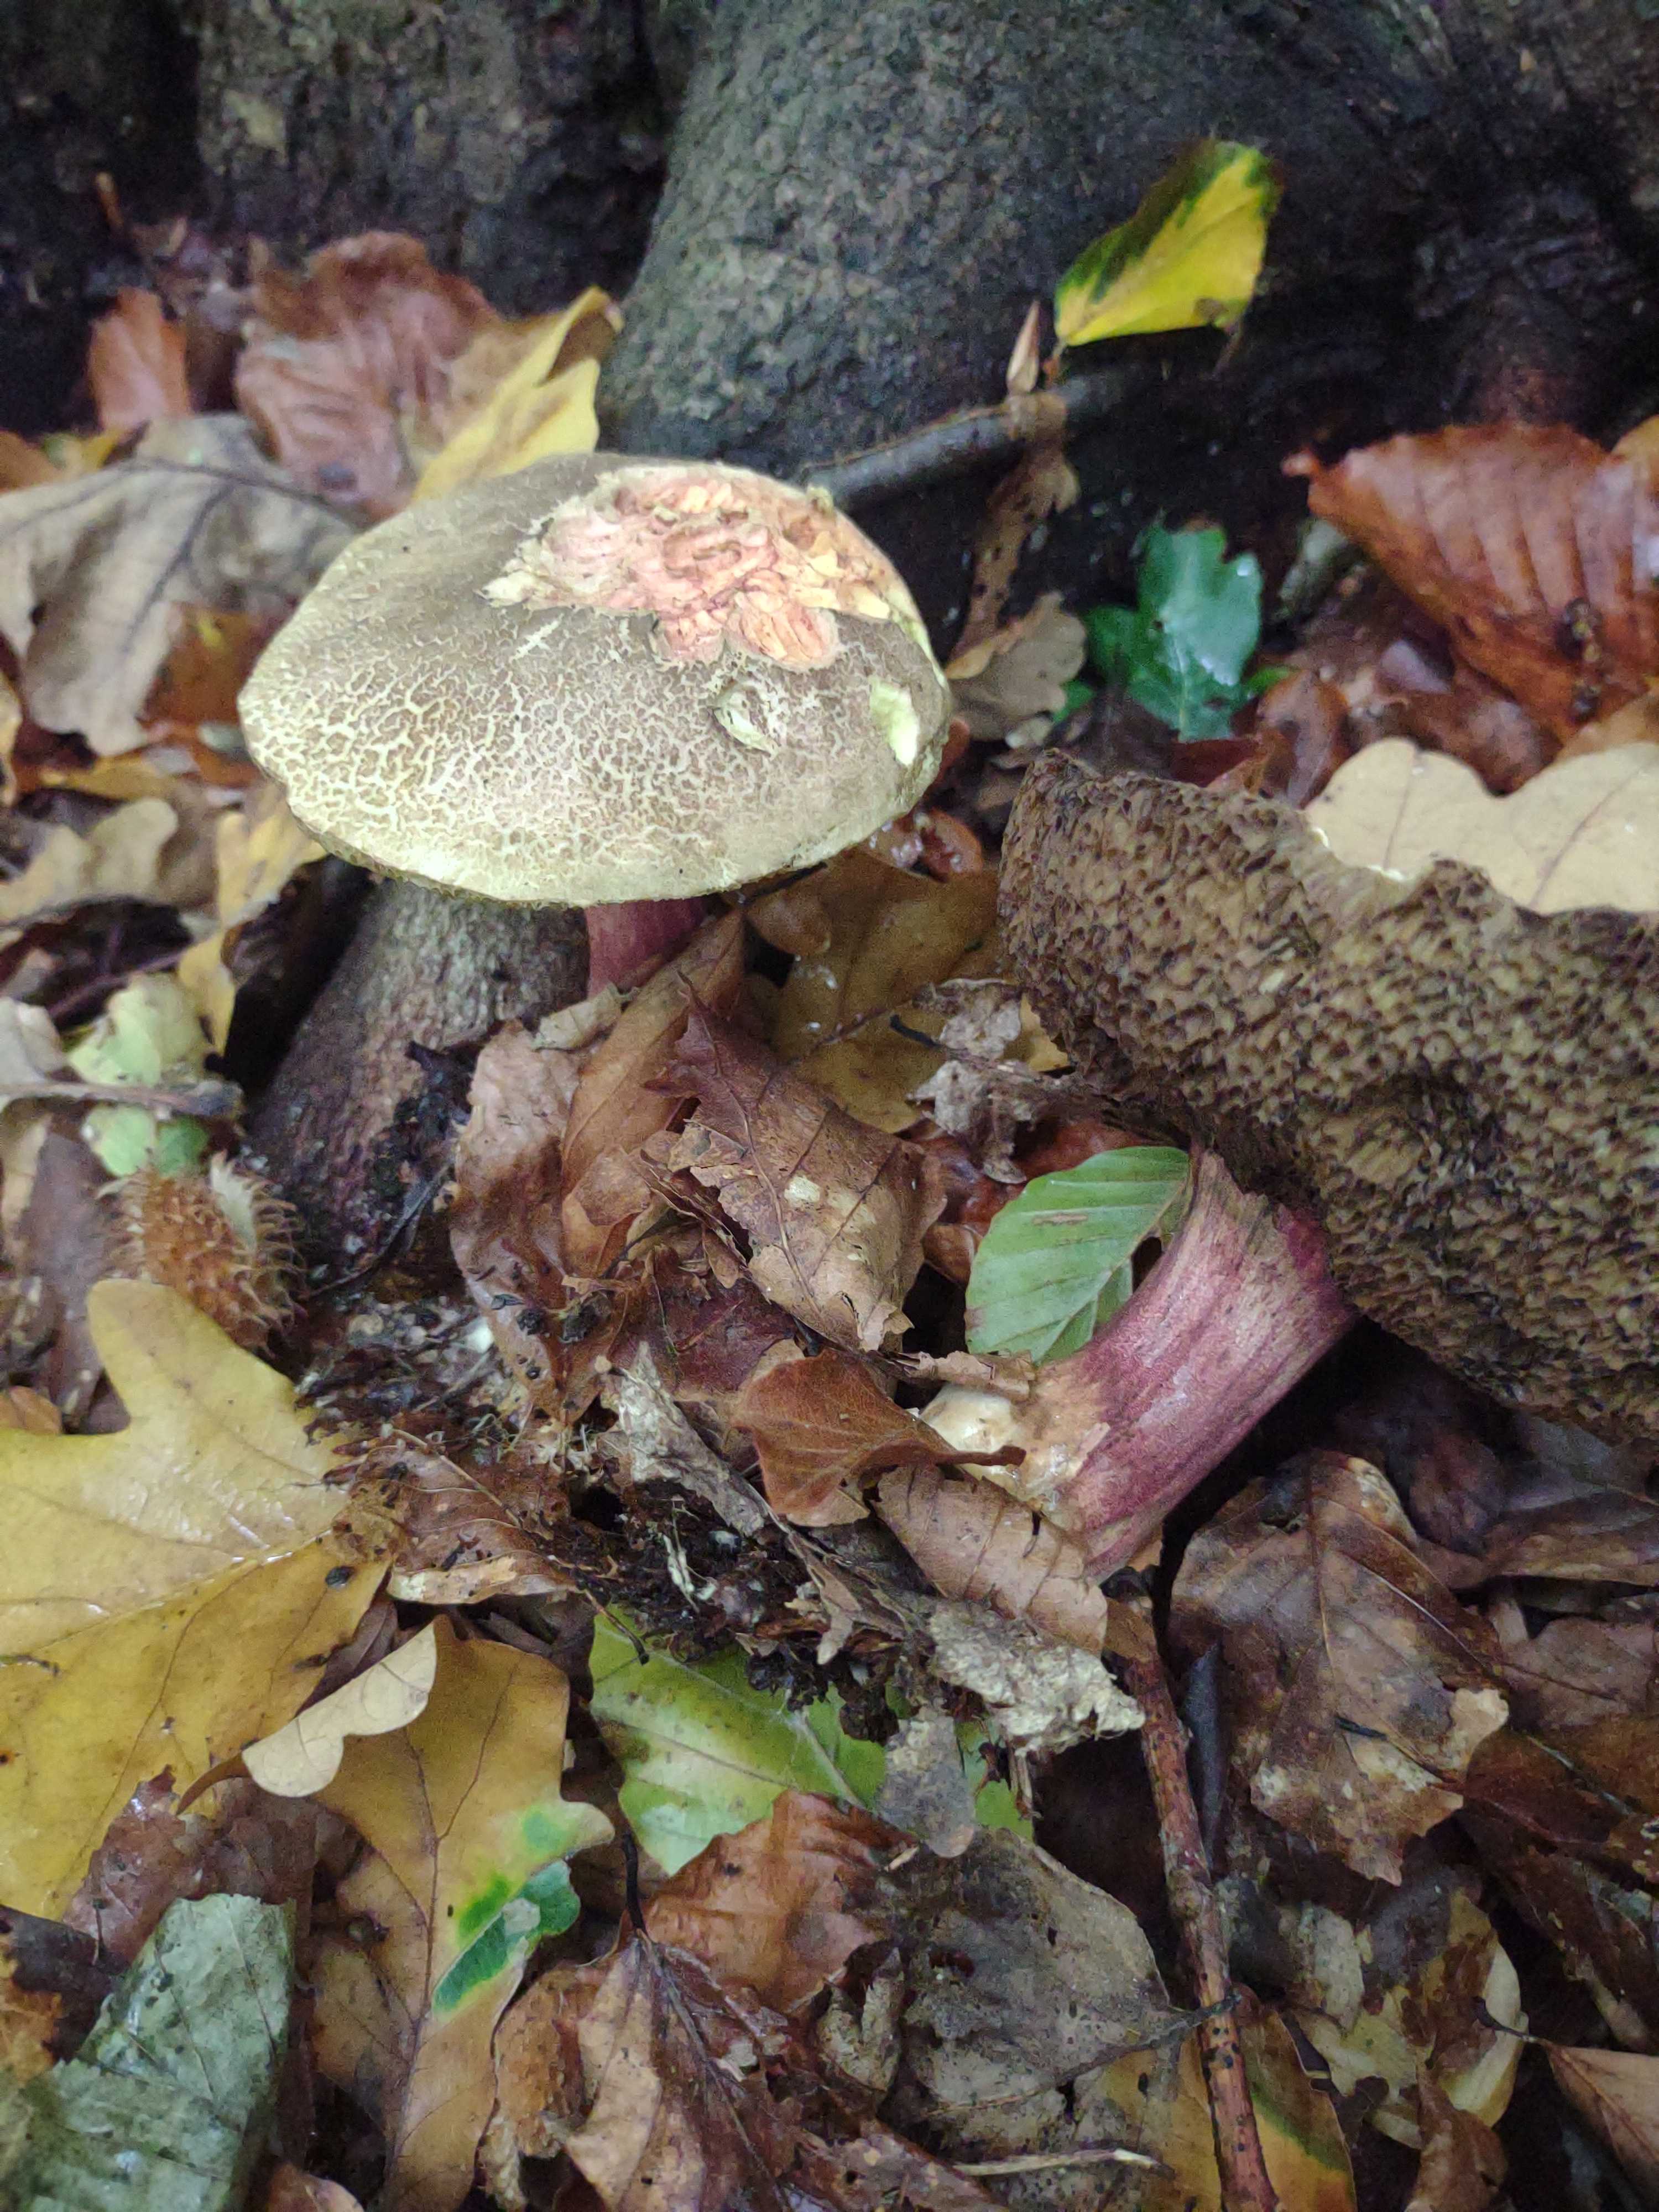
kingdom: Fungi
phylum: Basidiomycota
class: Agaricomycetes
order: Boletales
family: Boletaceae
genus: Xerocomellus
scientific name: Xerocomellus
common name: dværgrørhat
